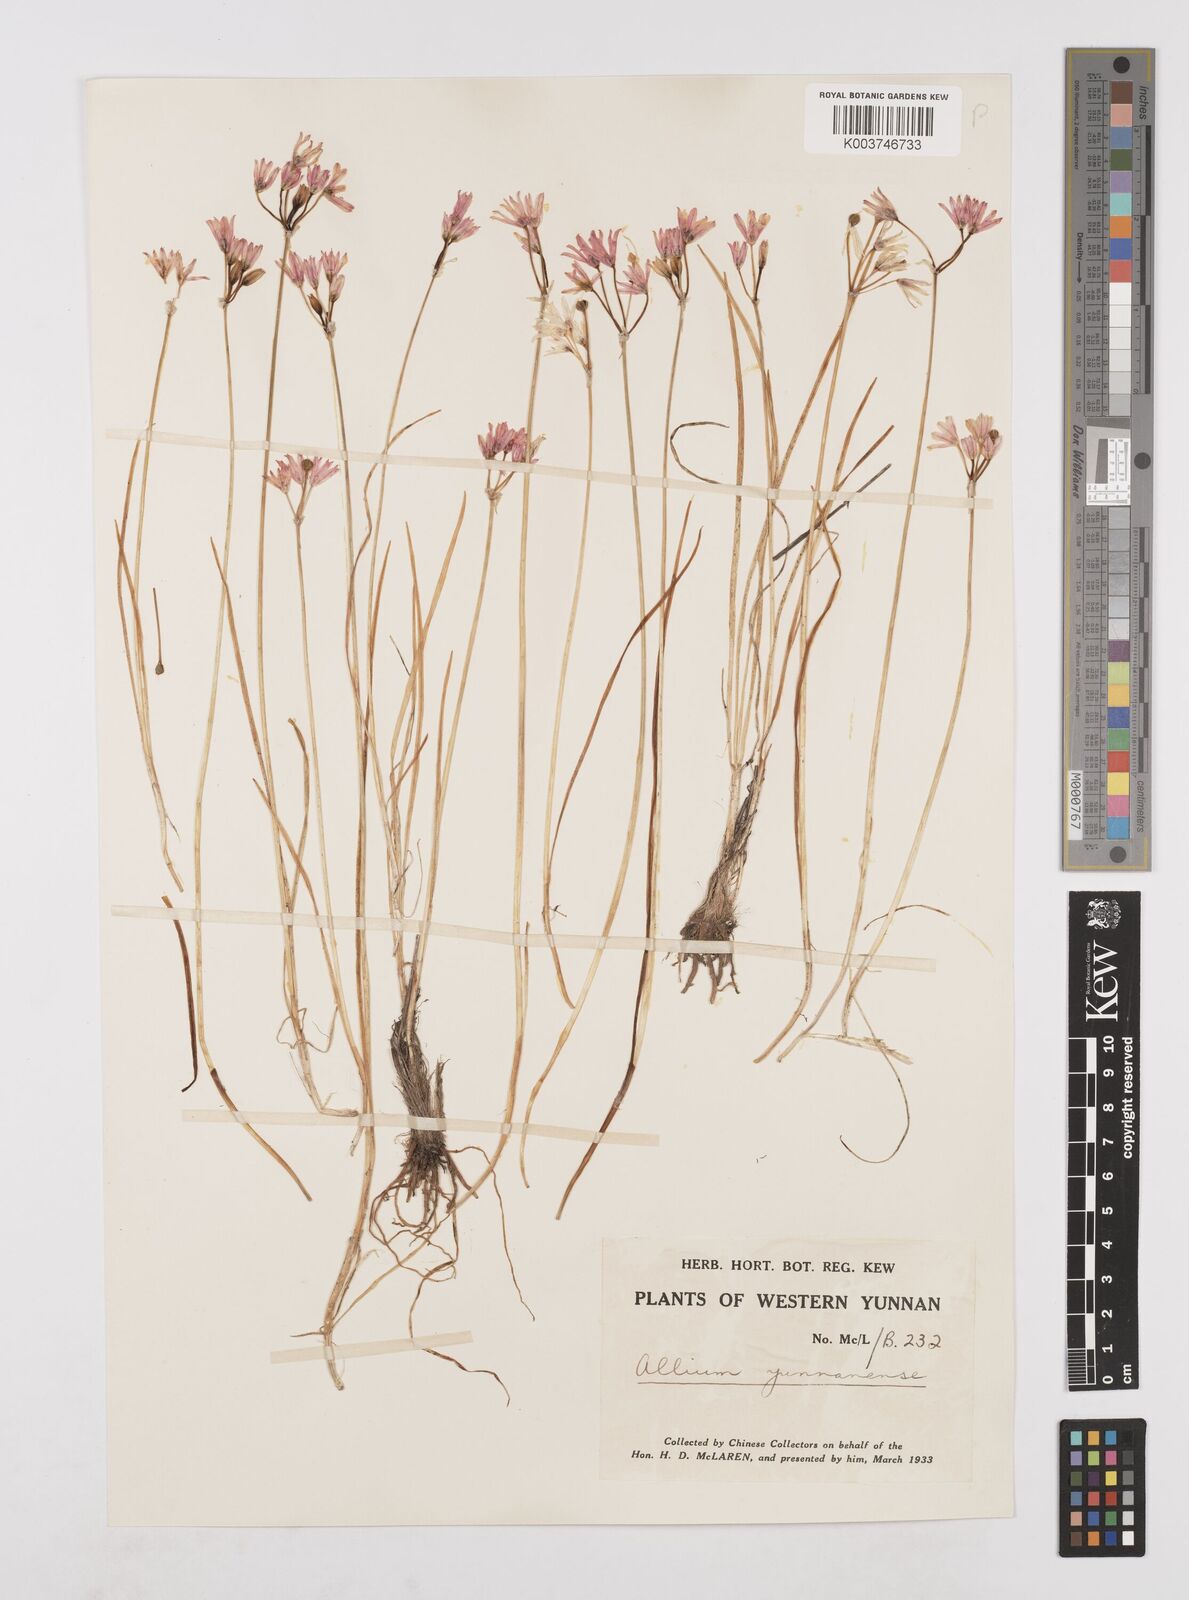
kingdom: Plantae
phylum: Tracheophyta
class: Liliopsida
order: Asparagales
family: Amaryllidaceae
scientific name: Amaryllidaceae
